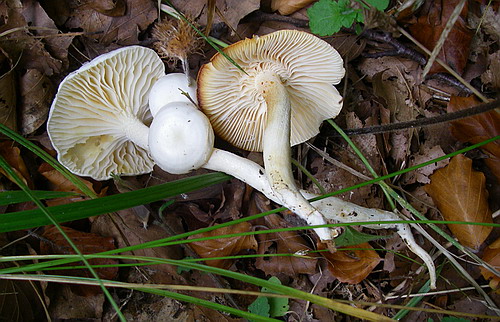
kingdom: Fungi
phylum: Basidiomycota
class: Agaricomycetes
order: Agaricales
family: Hygrophoraceae
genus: Hygrophorus
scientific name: Hygrophorus discoxanthus
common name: ildelugtende sneglehat
